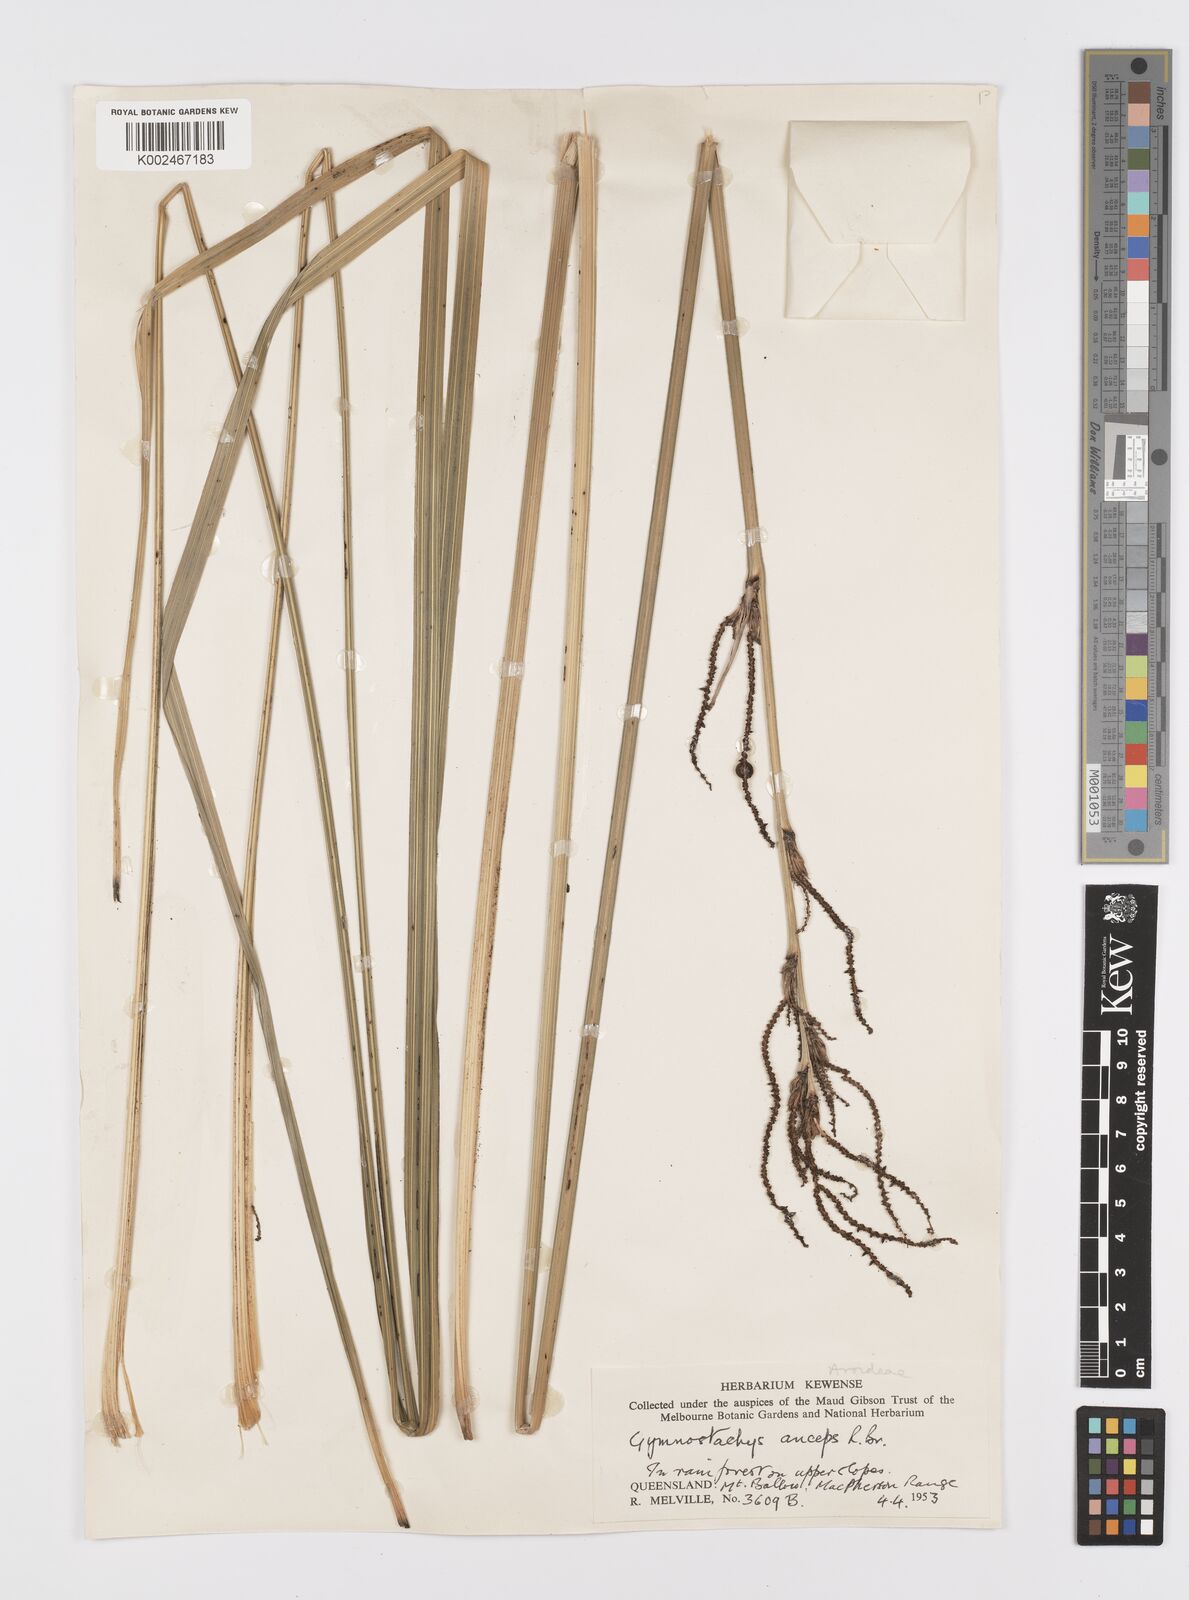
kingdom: Plantae
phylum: Tracheophyta
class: Liliopsida
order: Alismatales
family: Araceae
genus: Gymnostachys
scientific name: Gymnostachys anceps
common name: Settler's-flax
